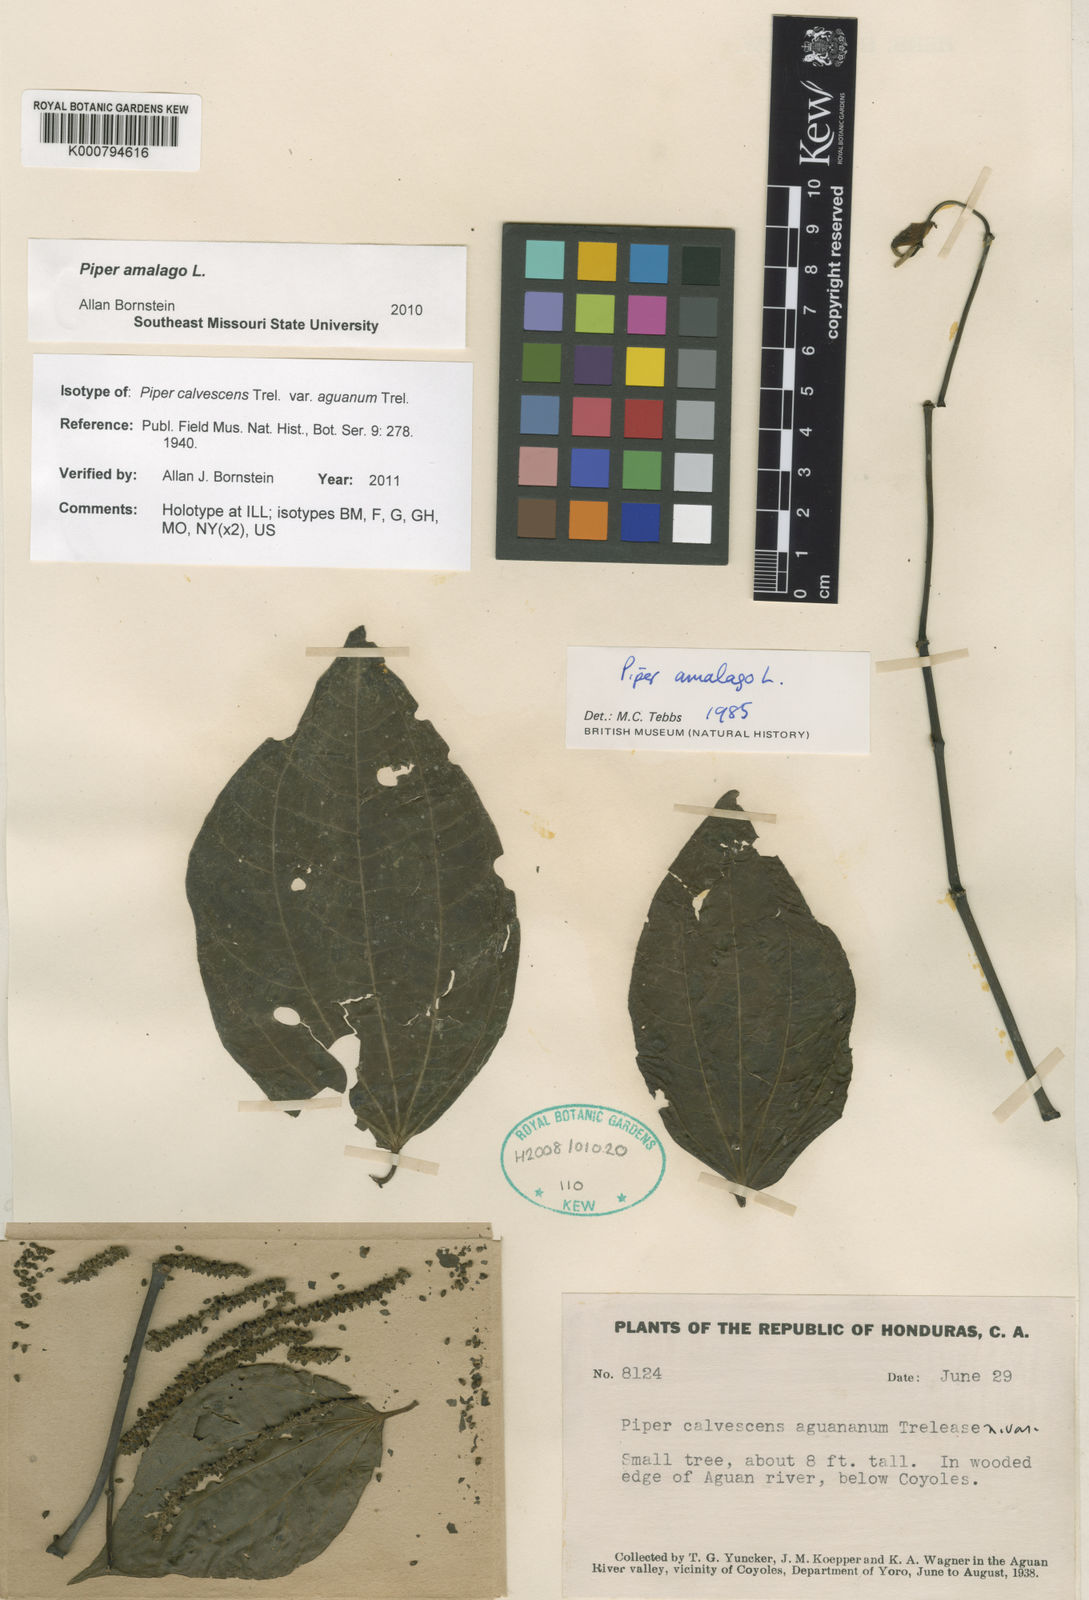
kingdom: Plantae
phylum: Tracheophyta
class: Magnoliopsida
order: Piperales
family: Piperaceae
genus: Piper
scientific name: Piper amalago
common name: Pepper-elder
